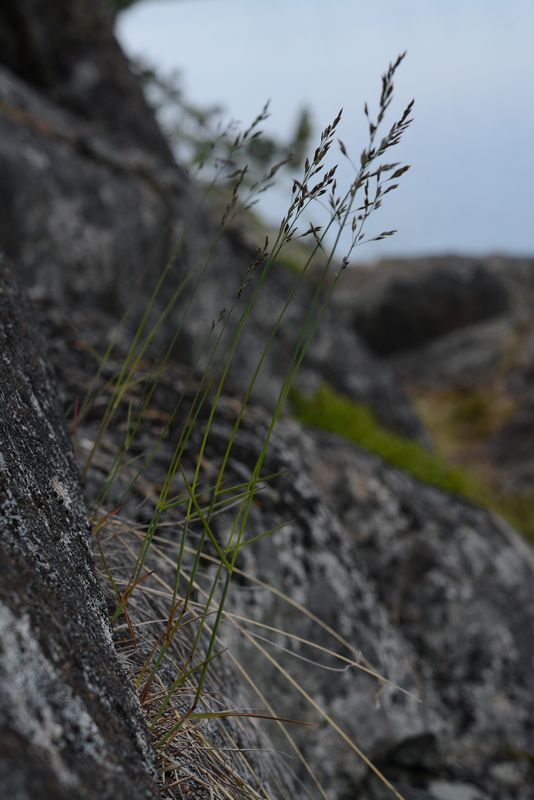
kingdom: Plantae
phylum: Tracheophyta
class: Liliopsida
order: Poales
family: Poaceae
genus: Poa
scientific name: Poa
